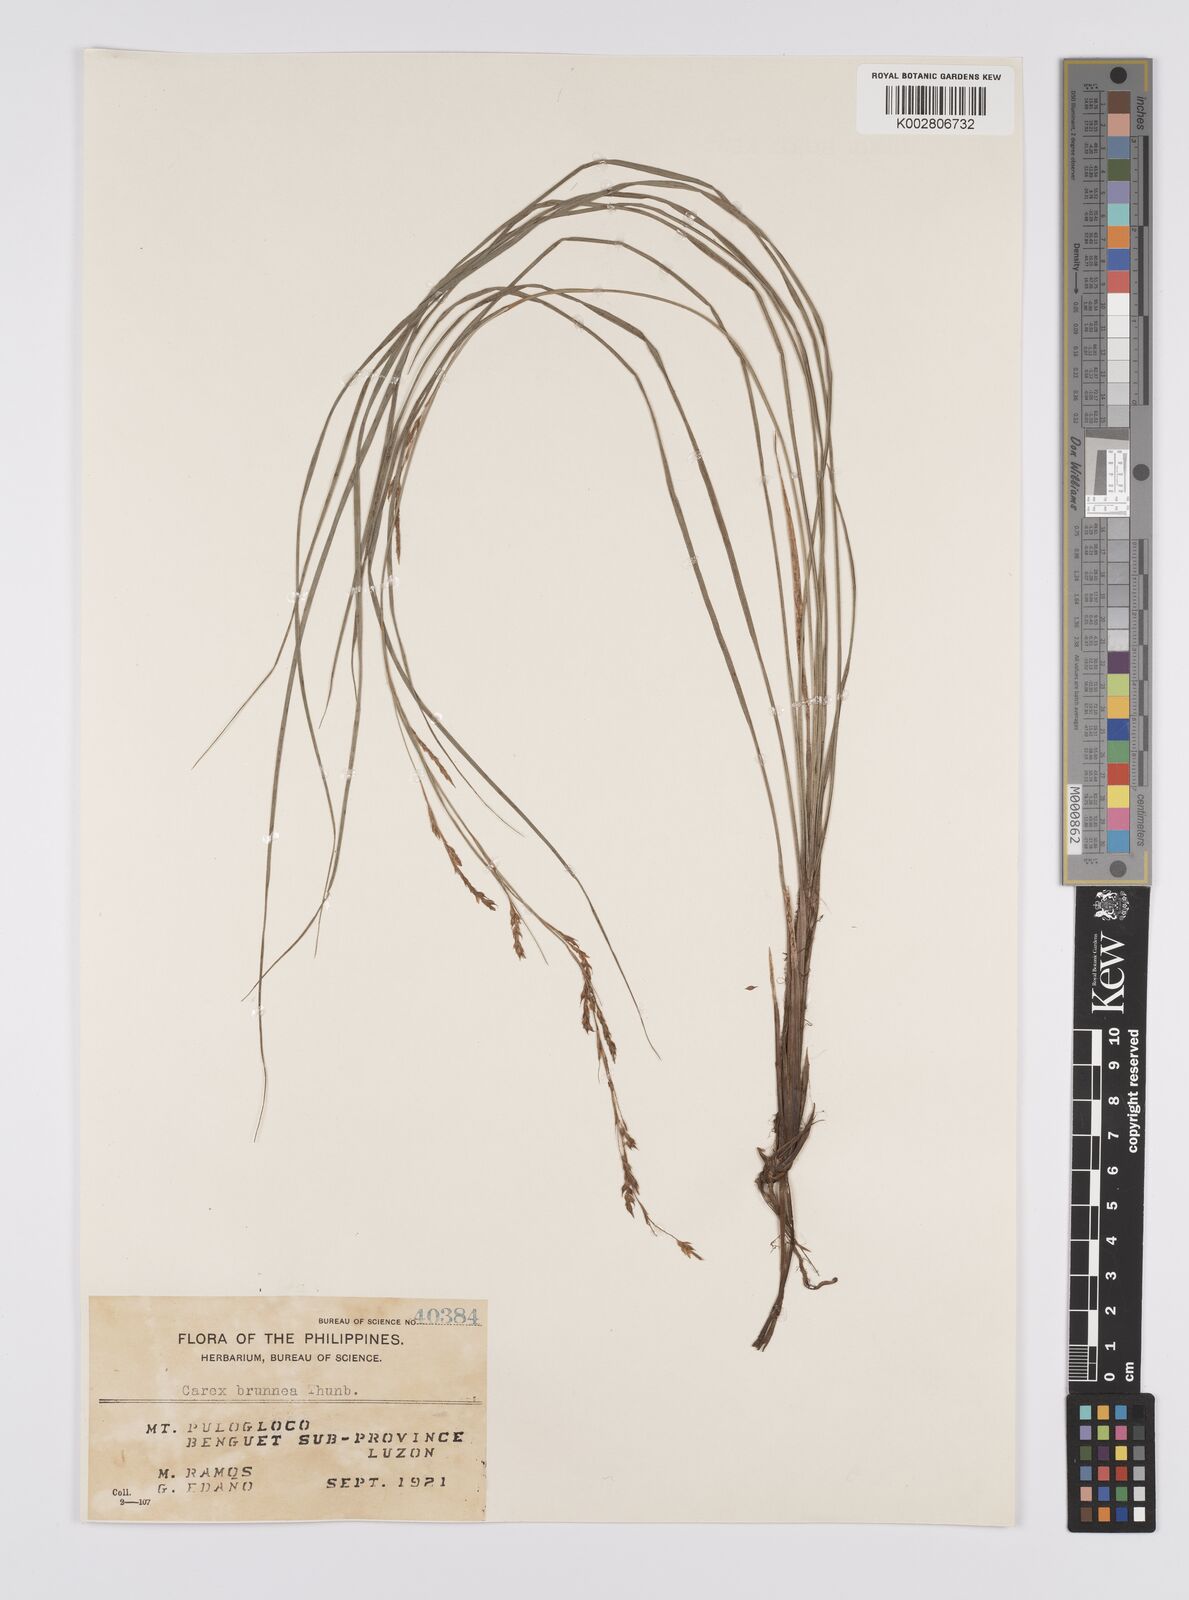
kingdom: Plantae
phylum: Tracheophyta
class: Liliopsida
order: Poales
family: Cyperaceae
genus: Carex
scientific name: Carex brunnea
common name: Greater brown sedge
